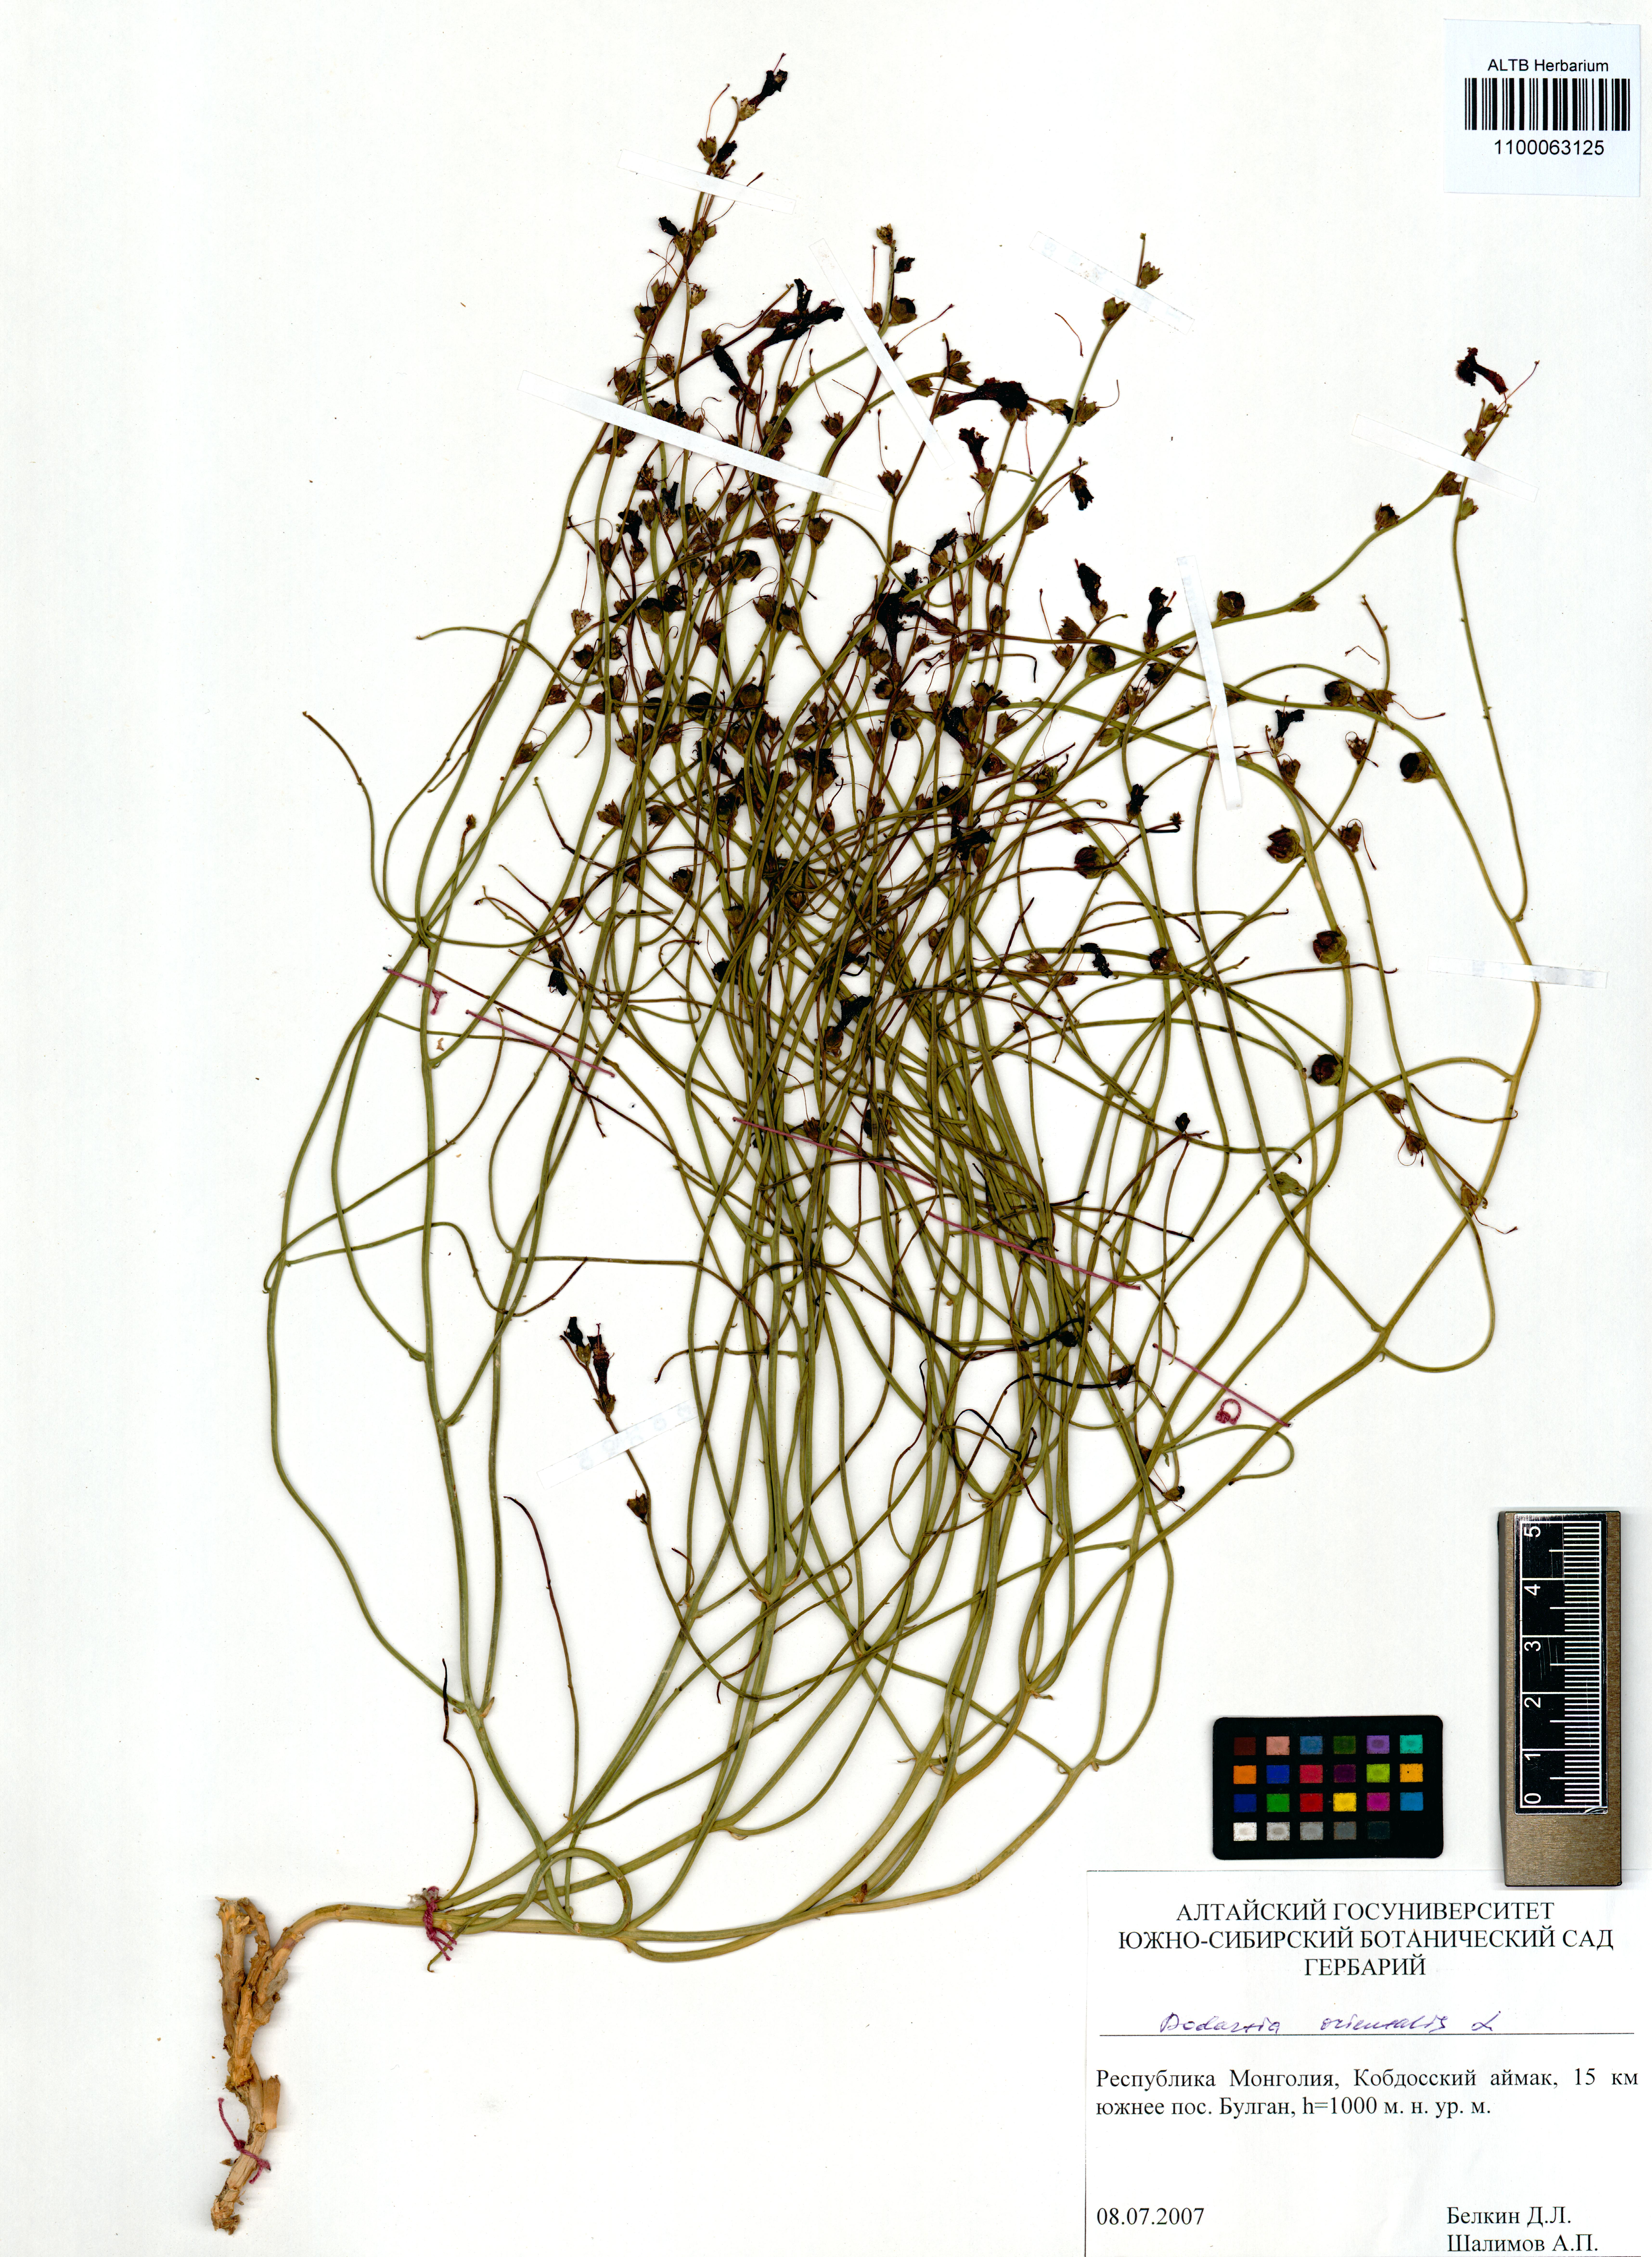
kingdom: Plantae
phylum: Tracheophyta
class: Magnoliopsida
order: Lamiales
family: Mazaceae
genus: Dodartia
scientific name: Dodartia orientalis
